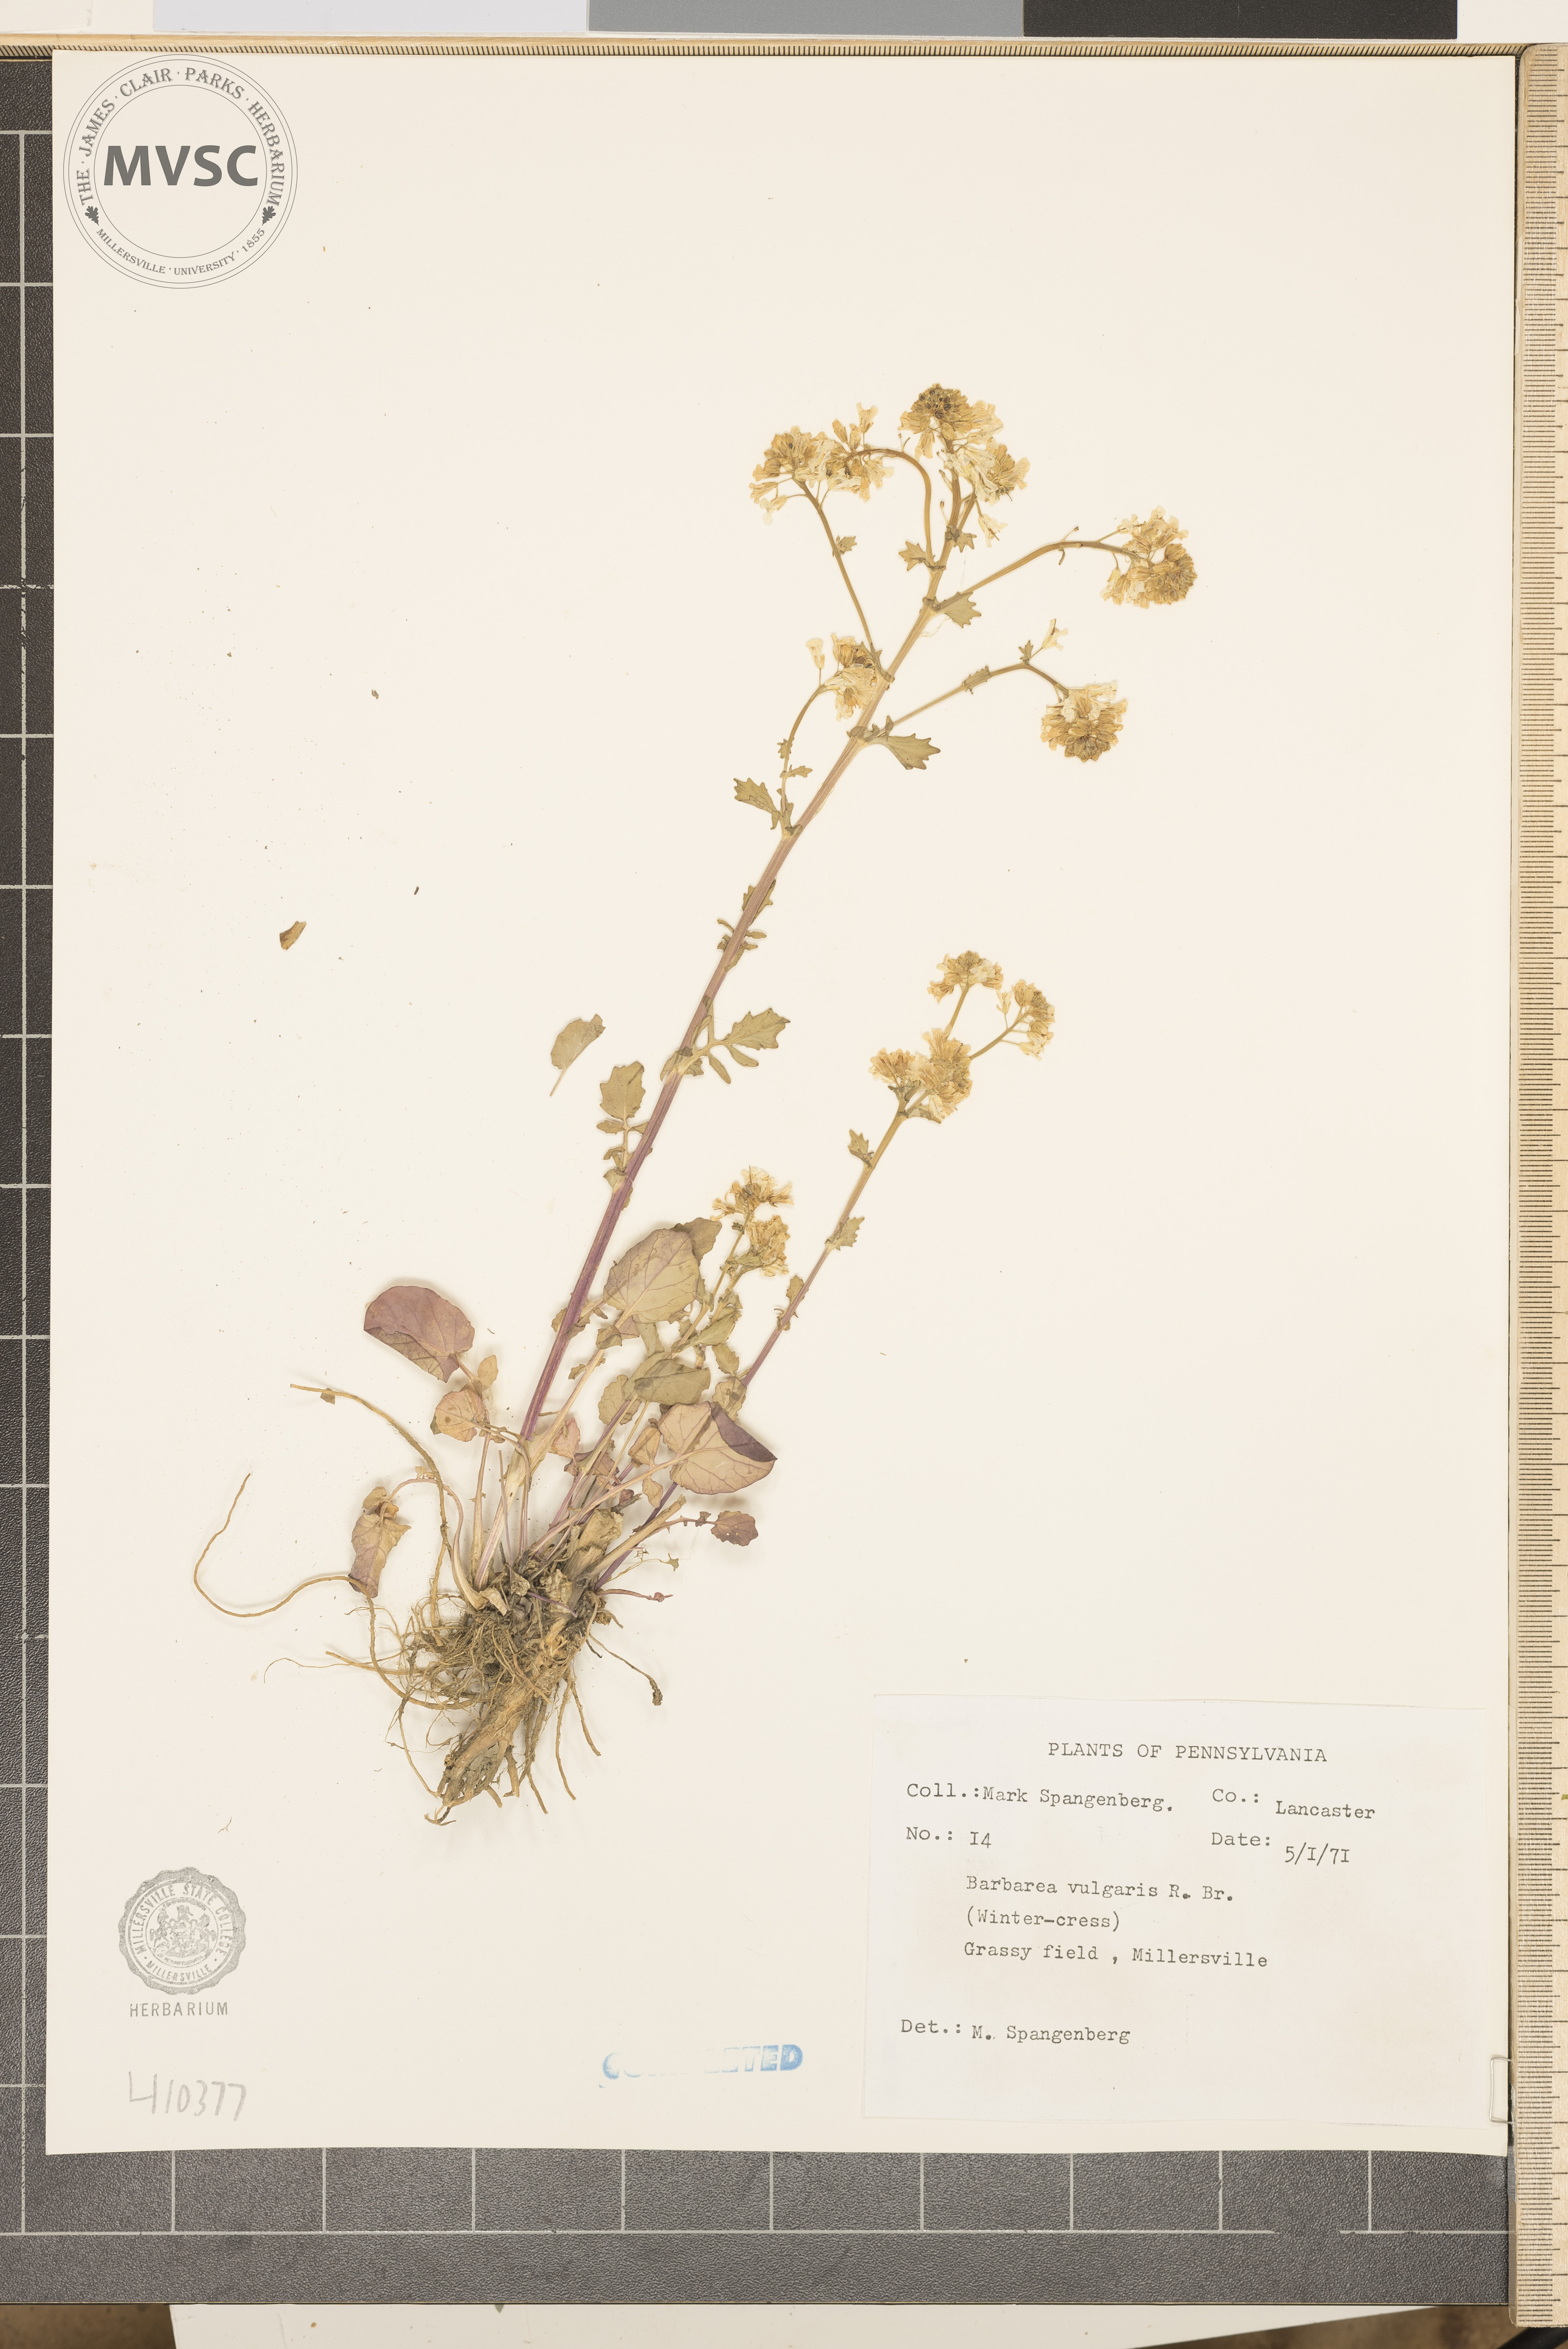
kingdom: Plantae
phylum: Tracheophyta
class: Magnoliopsida
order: Brassicales
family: Brassicaceae
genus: Barbarea
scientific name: Barbarea vulgaris
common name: Cressy-greens
